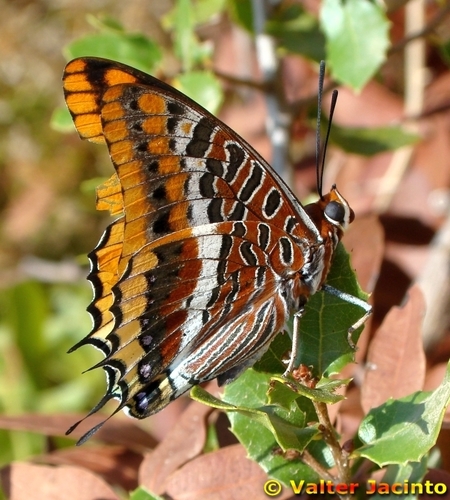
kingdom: Animalia
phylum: Arthropoda
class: Insecta
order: Lepidoptera
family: Nymphalidae
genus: Charaxes
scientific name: Charaxes jasius
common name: Two tailed pasha
